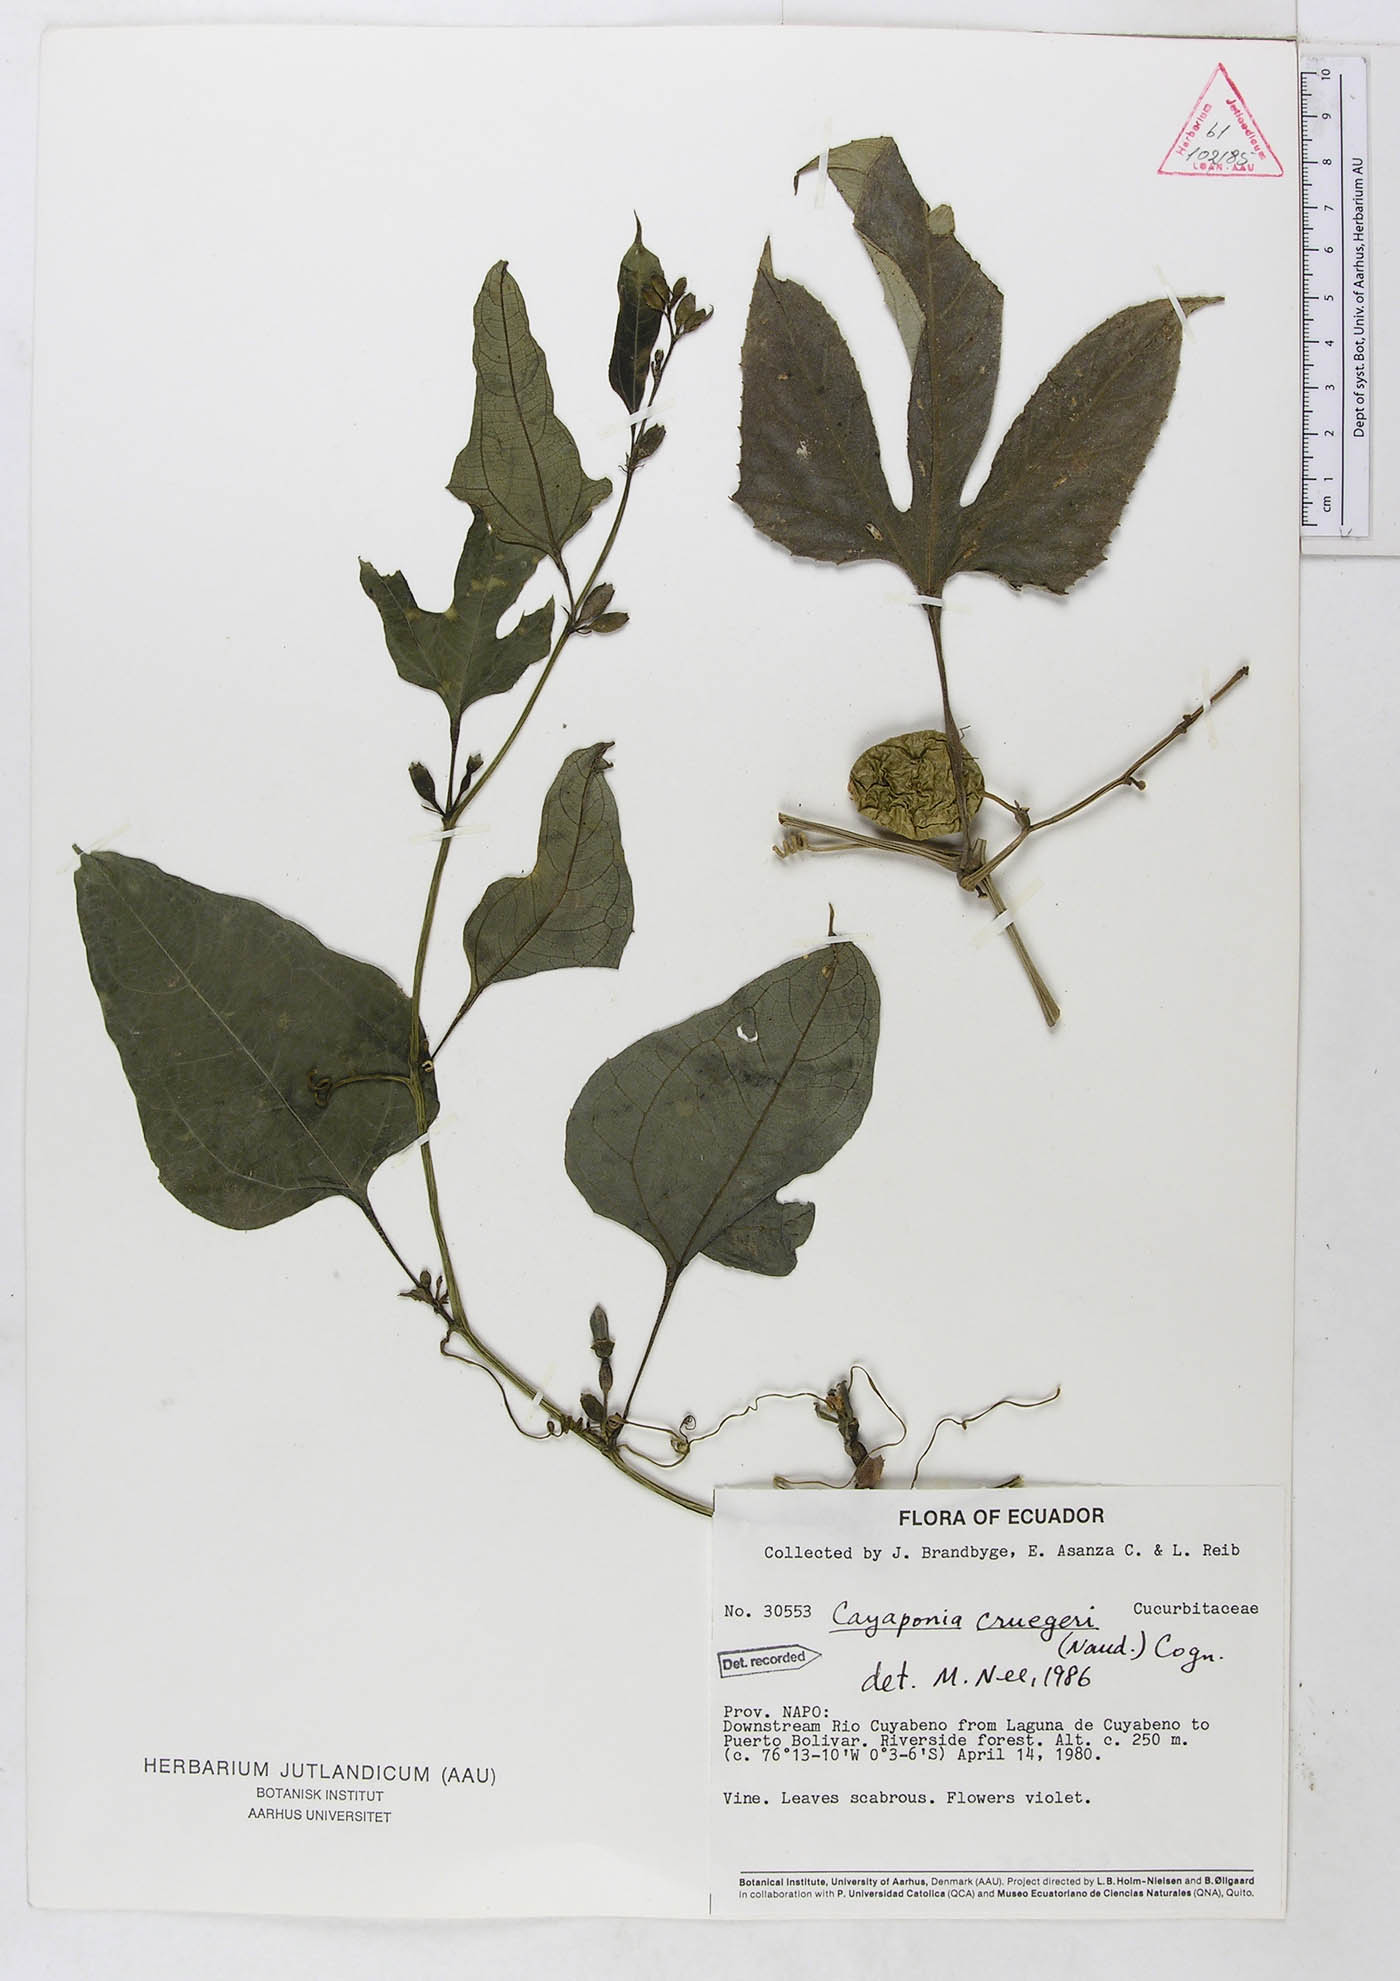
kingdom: Plantae
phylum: Tracheophyta
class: Magnoliopsida
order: Cucurbitales
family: Cucurbitaceae
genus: Cayaponia
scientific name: Cayaponia cruegeri
